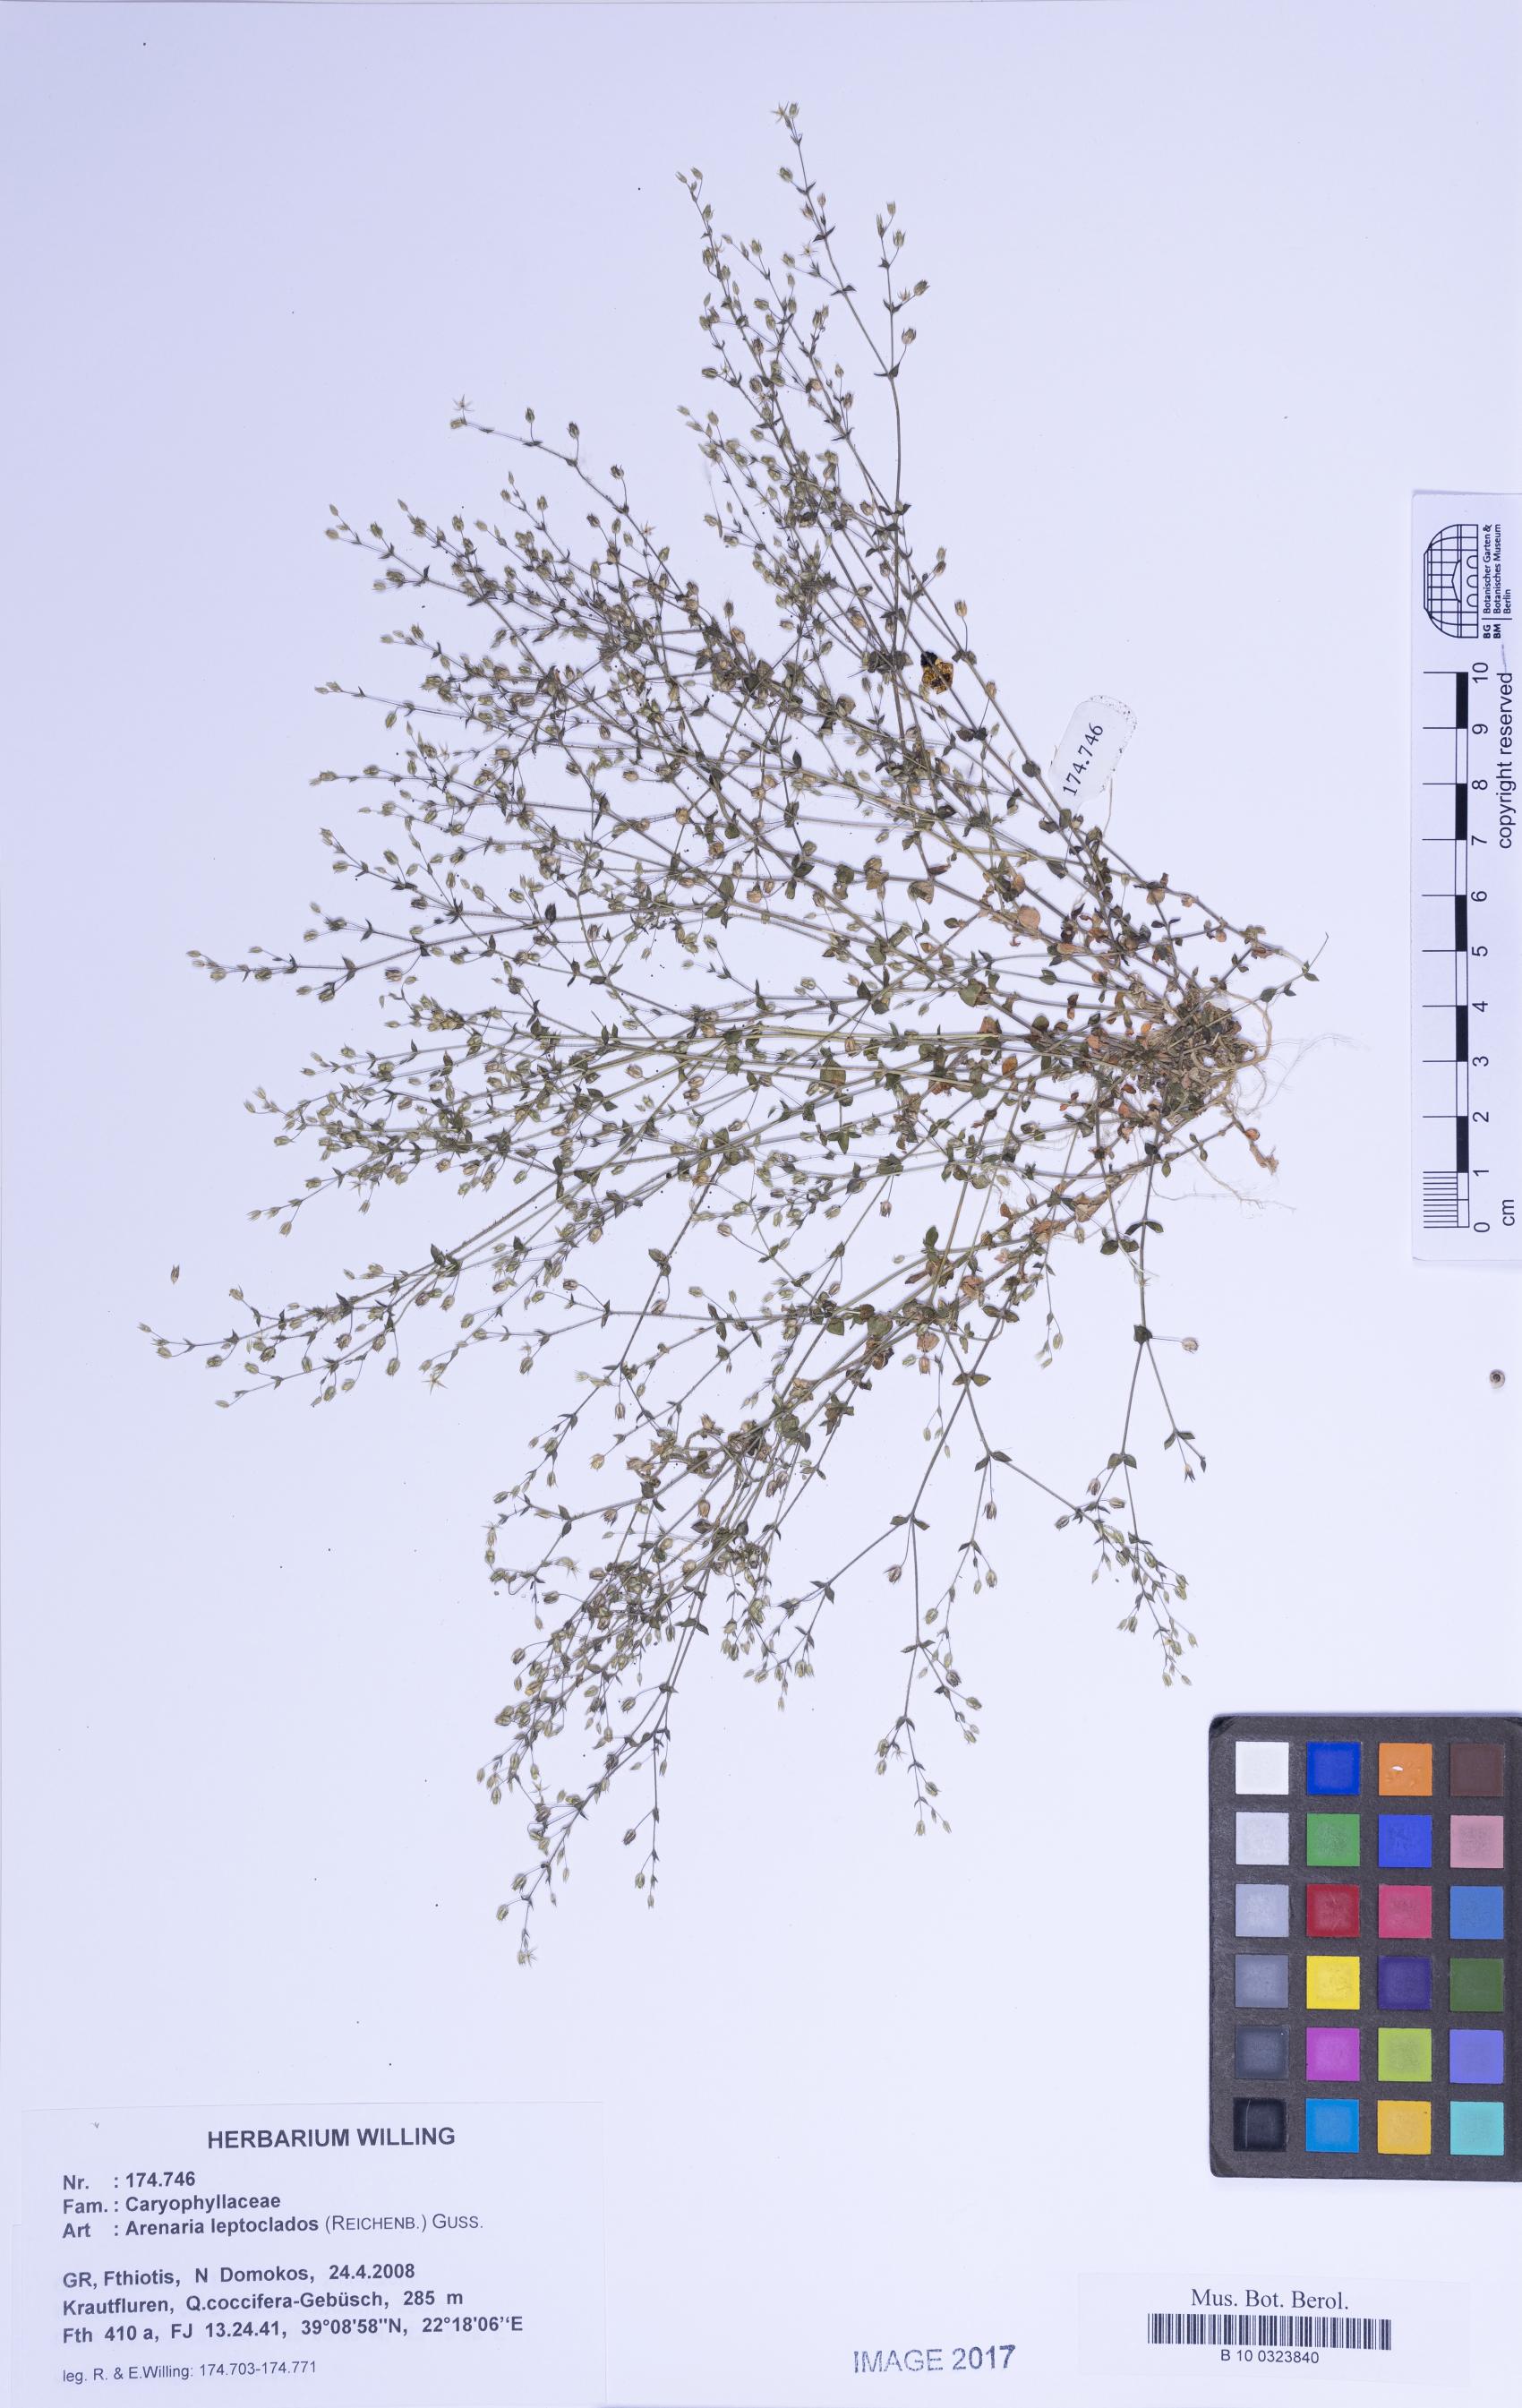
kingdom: Plantae
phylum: Tracheophyta
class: Magnoliopsida
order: Caryophyllales
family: Caryophyllaceae
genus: Arenaria
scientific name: Arenaria leptoclados
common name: Thyme-leaved sandwort
